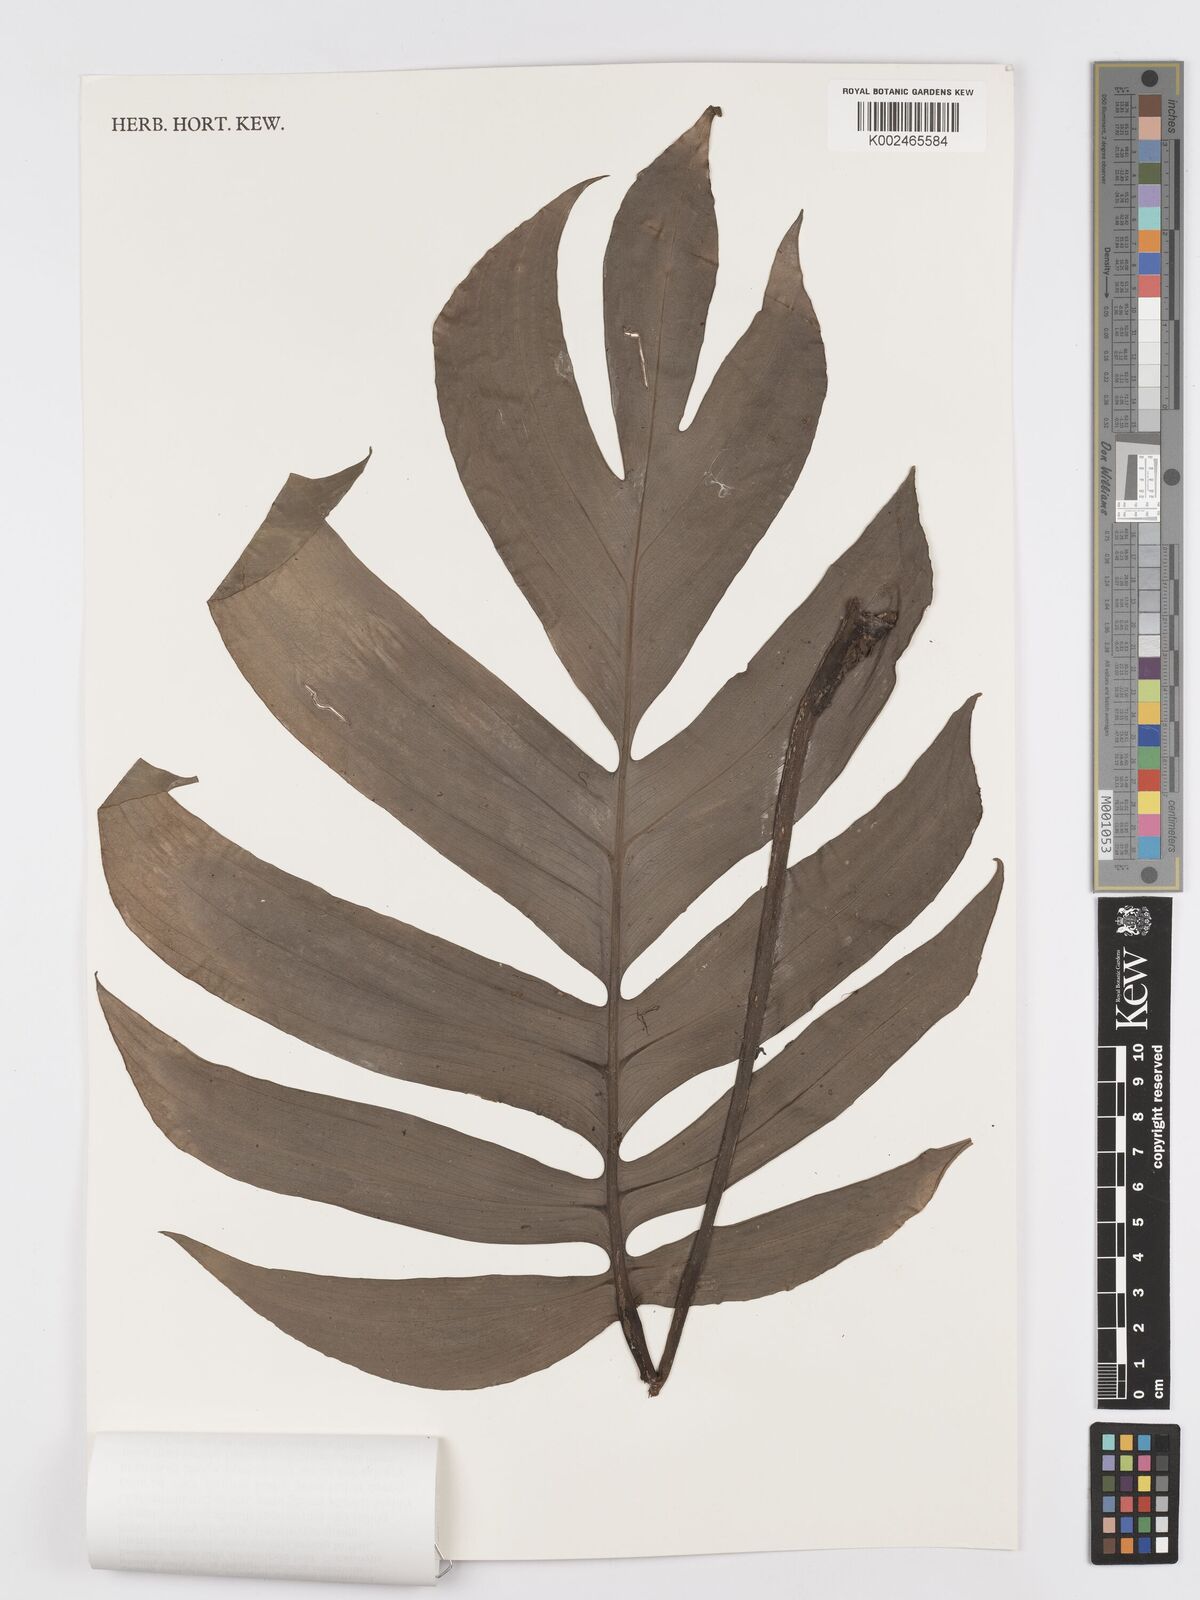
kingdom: Plantae
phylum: Tracheophyta
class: Liliopsida
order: Alismatales
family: Araceae
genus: Rhaphidophora
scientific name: Rhaphidophora decursiva
